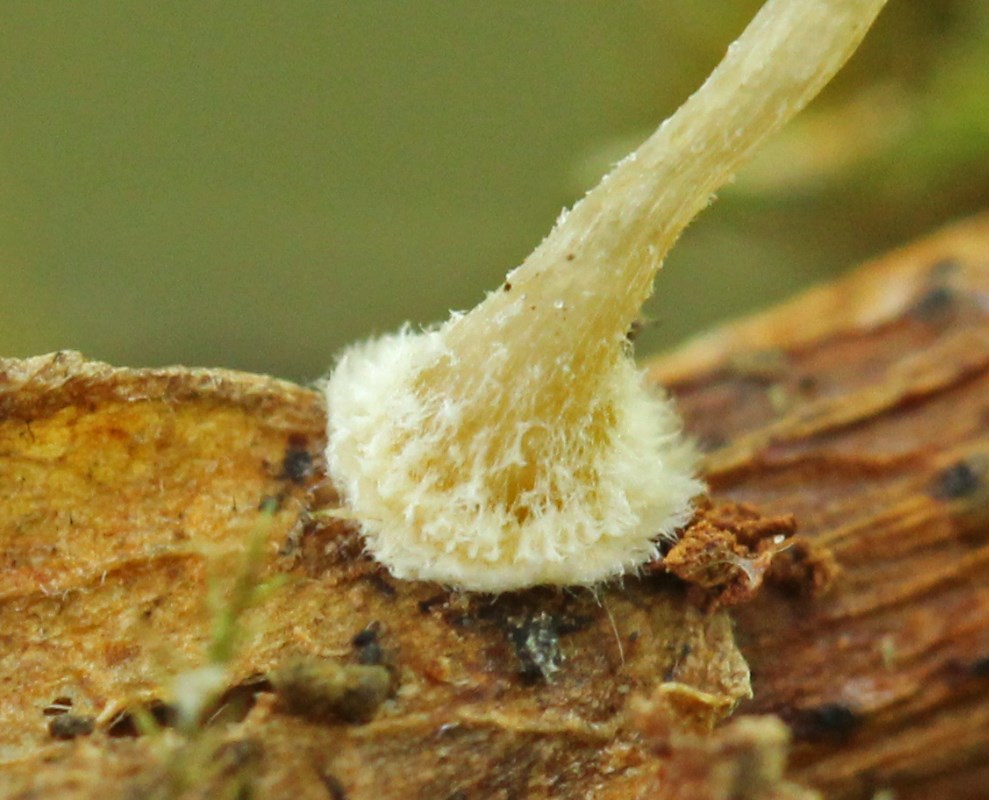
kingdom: Fungi
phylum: Basidiomycota
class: Agaricomycetes
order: Agaricales
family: Mycenaceae
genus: Mycena
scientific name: Mycena
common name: huesvamp
